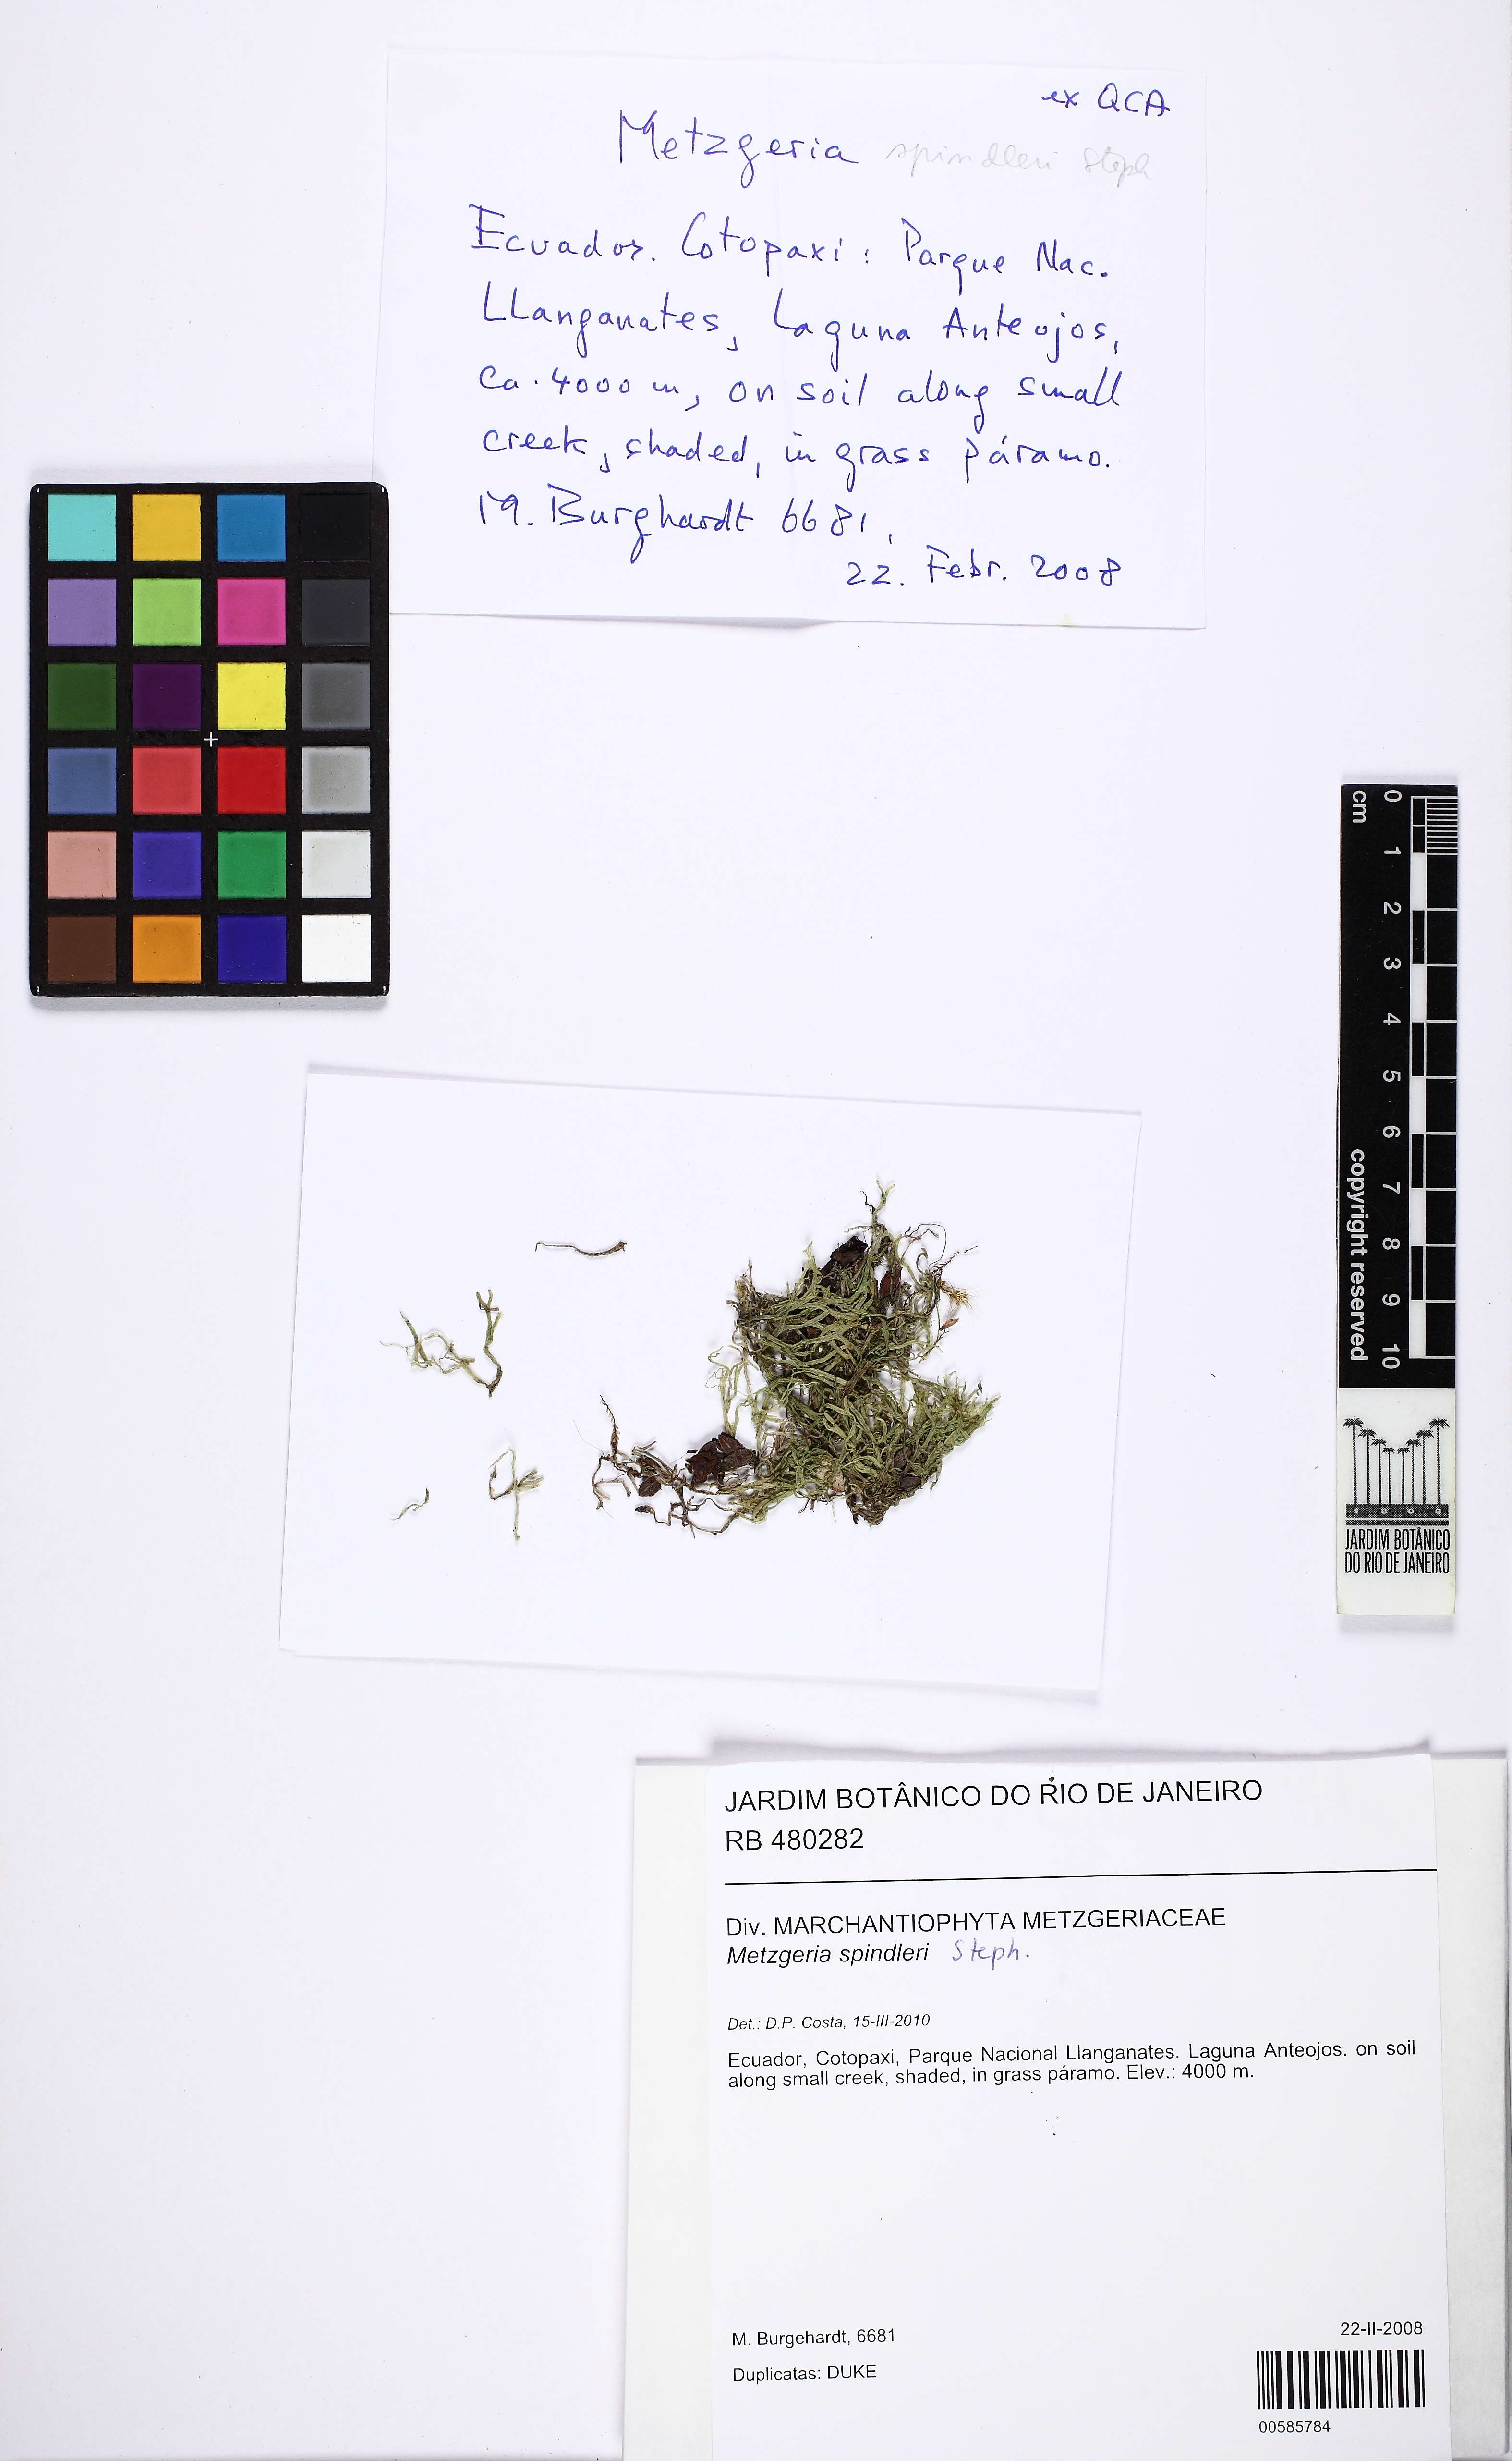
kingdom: Plantae
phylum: Marchantiophyta
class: Jungermanniopsida
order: Metzgeriales
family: Metzgeriaceae
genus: Metzgeria
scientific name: Metzgeria spindleri
